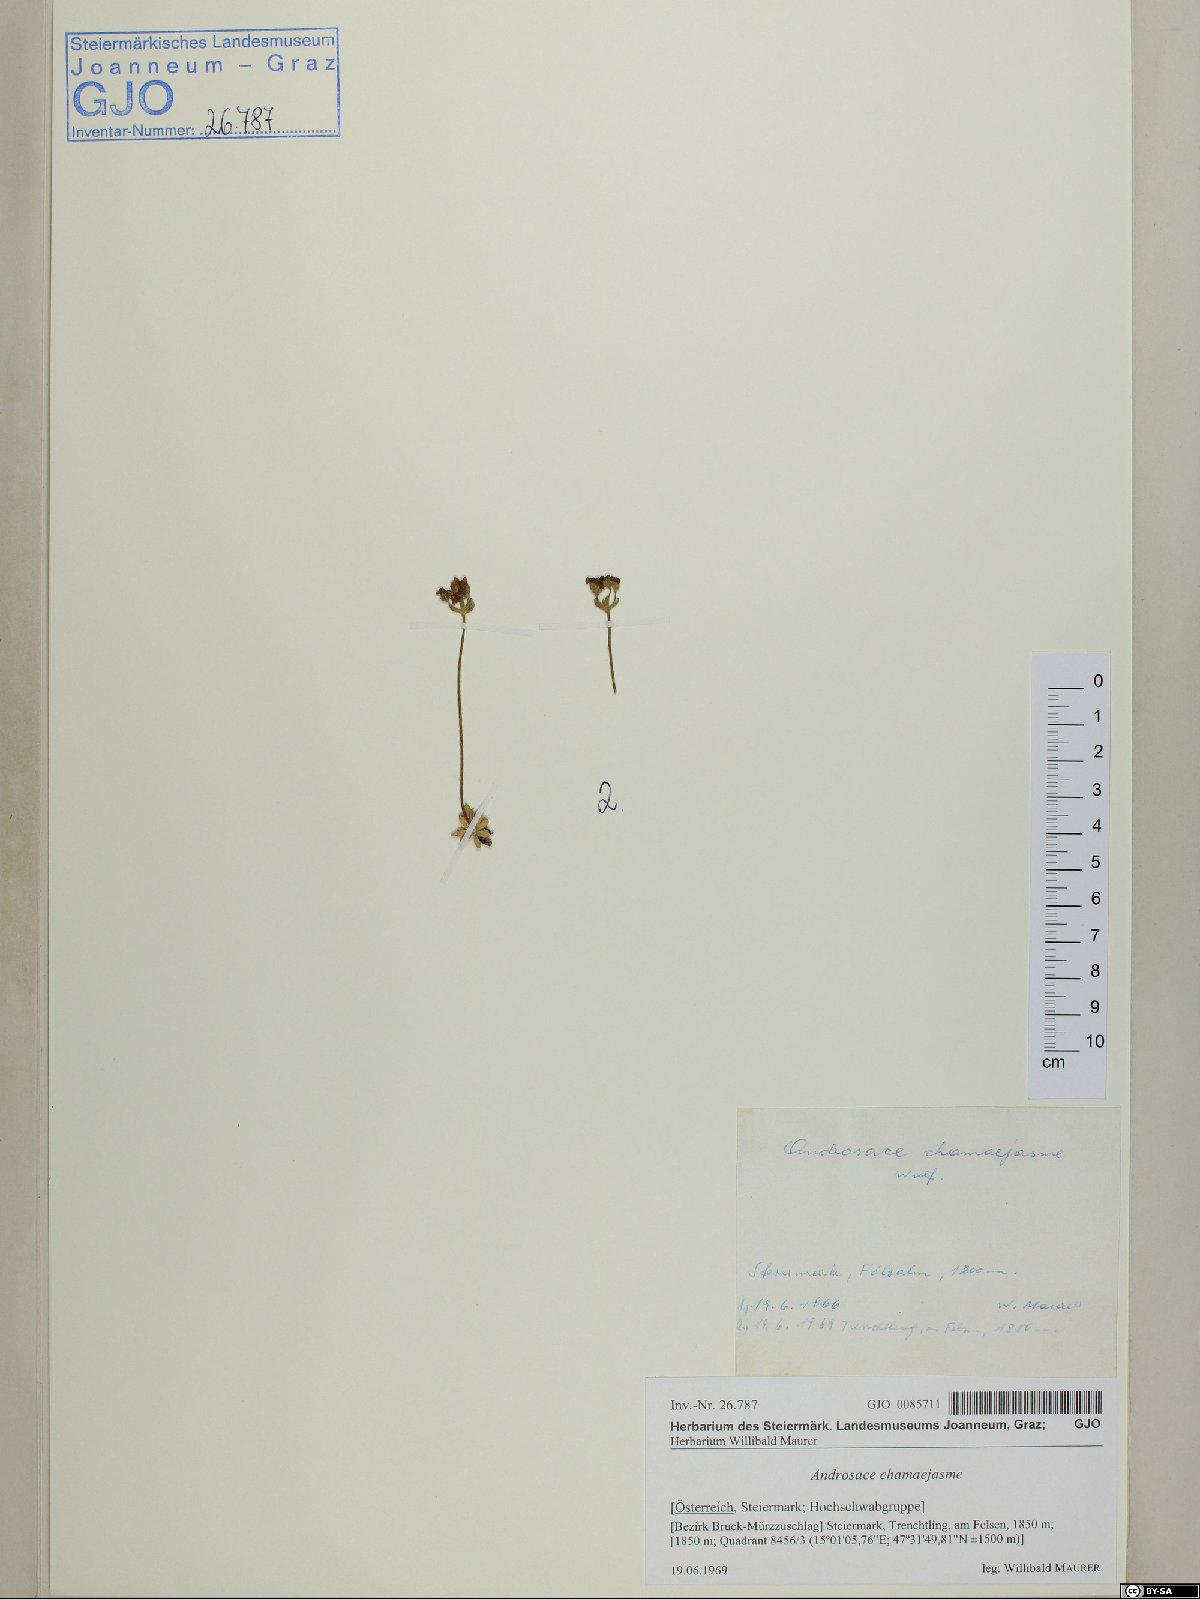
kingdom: Plantae
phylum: Tracheophyta
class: Magnoliopsida
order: Ericales
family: Primulaceae
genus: Androsace
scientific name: Androsace chamaejasme
